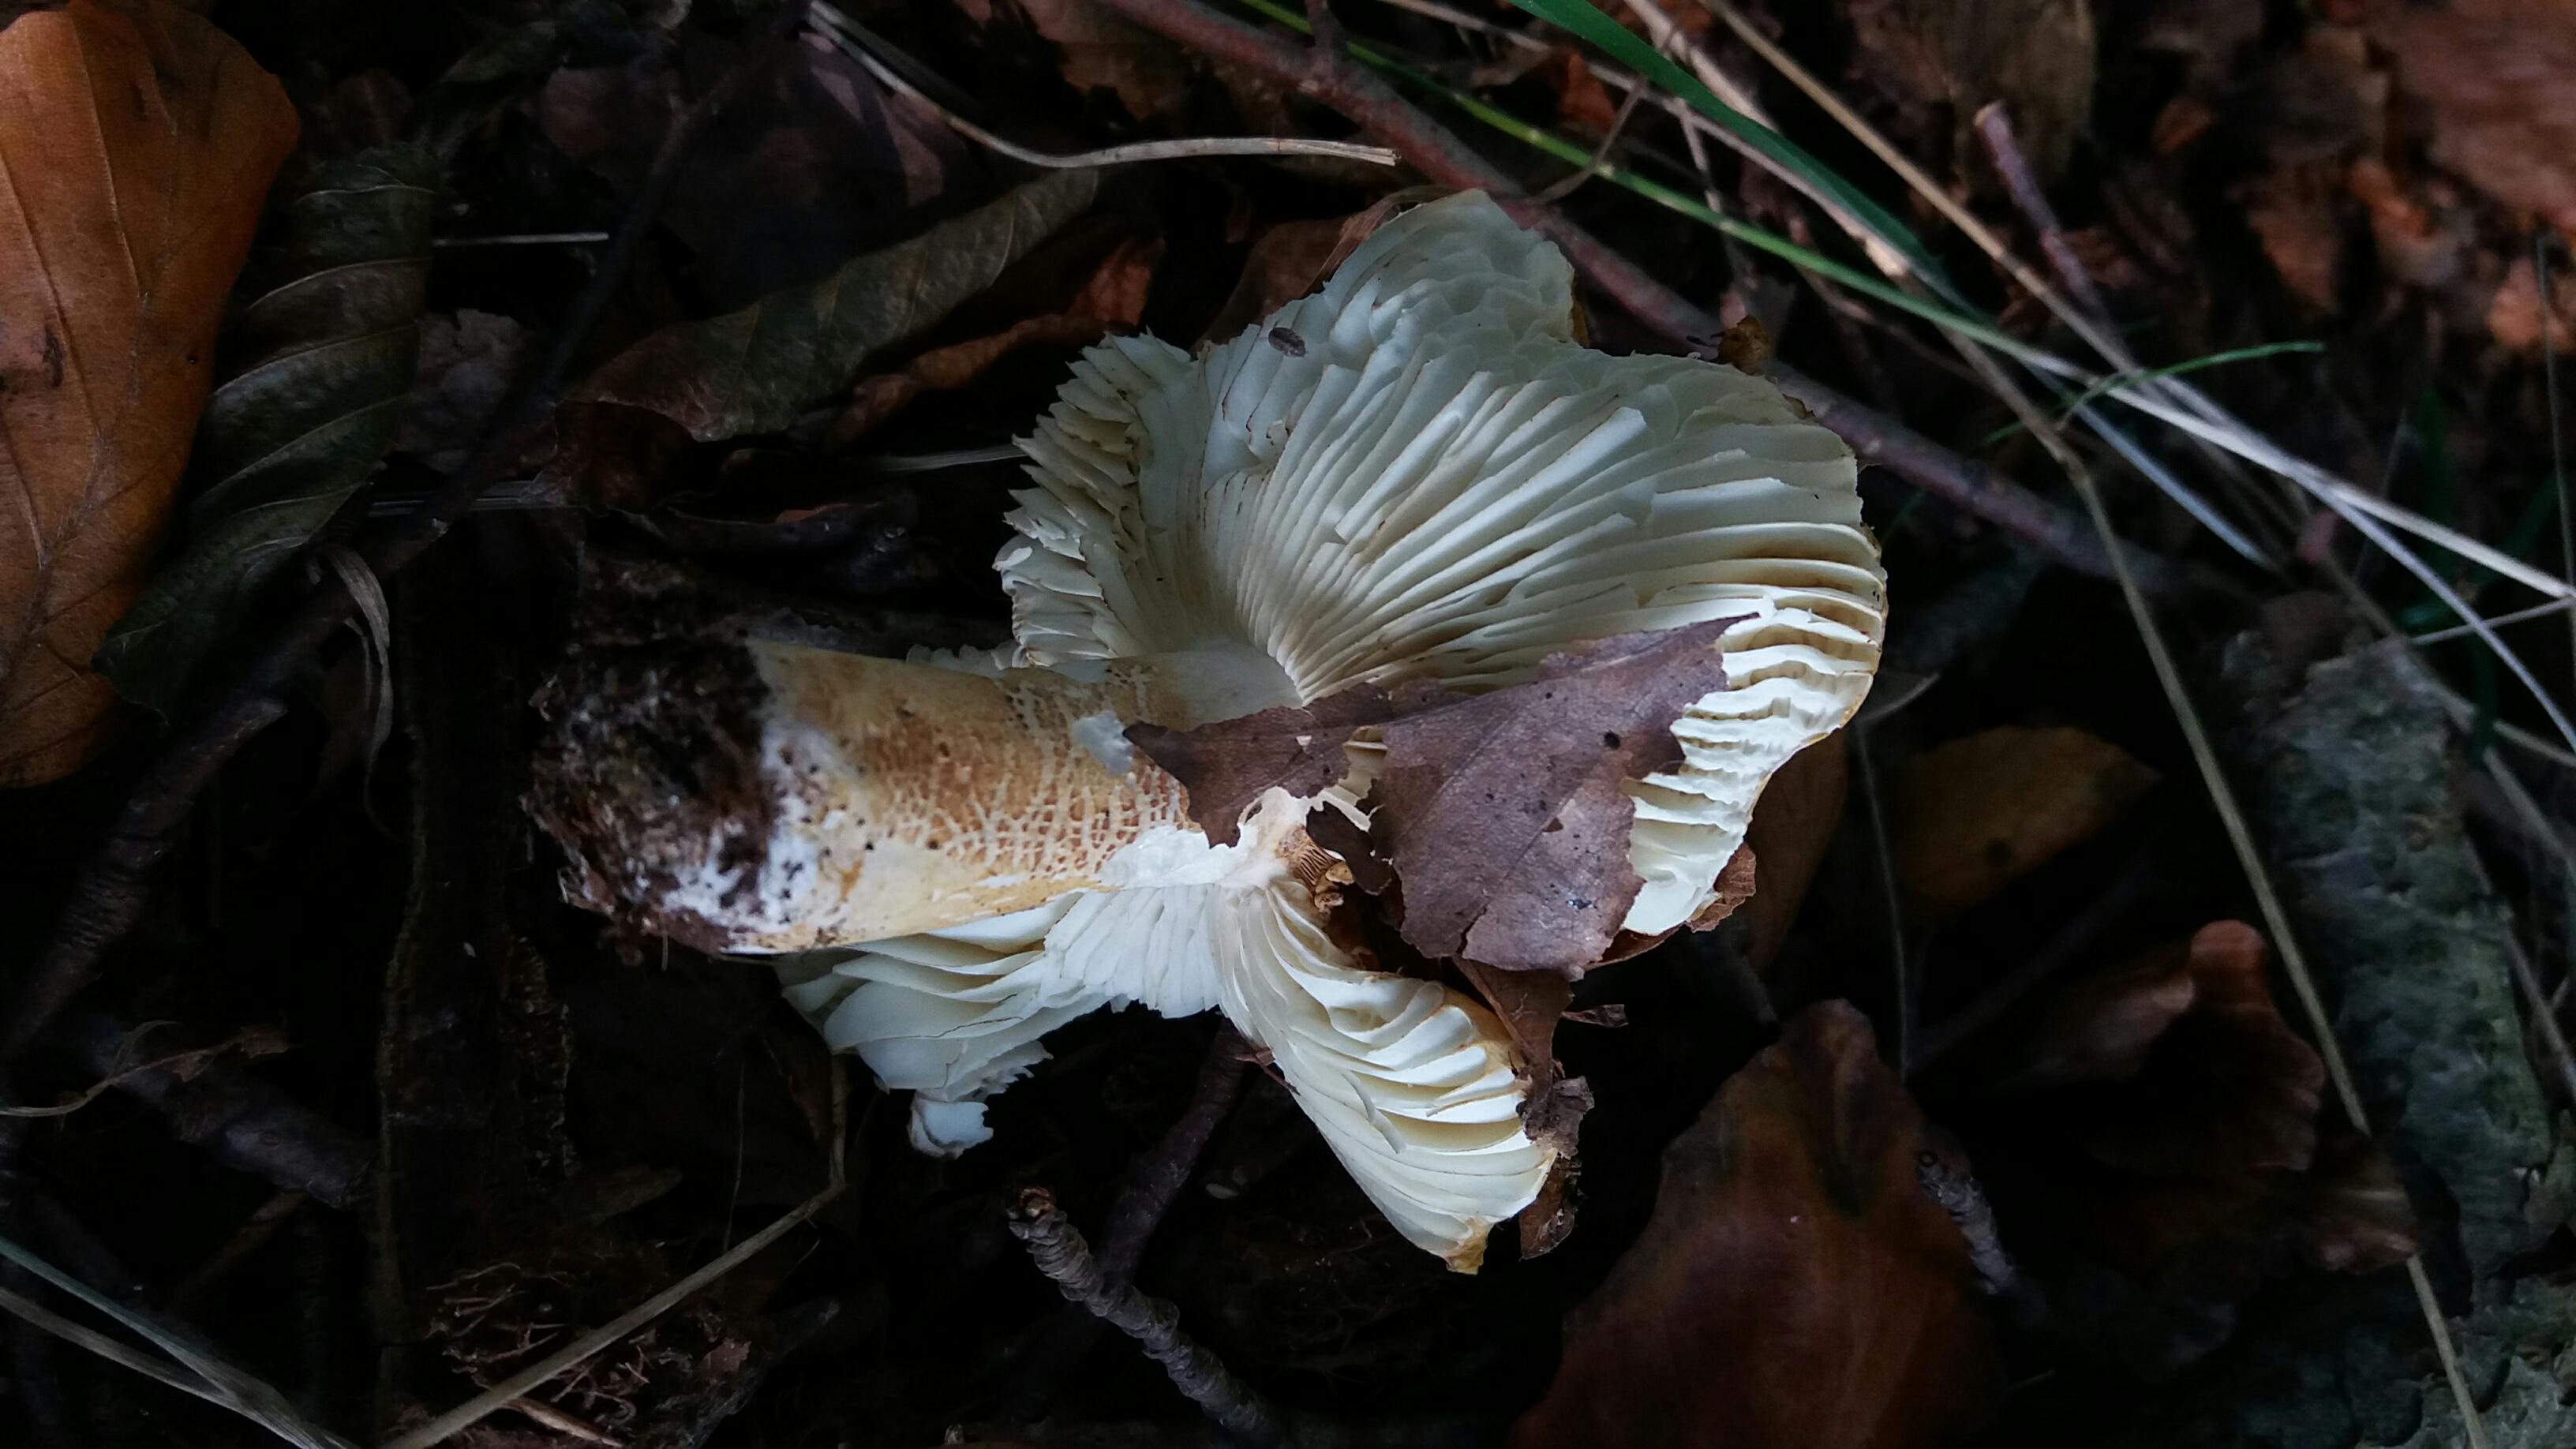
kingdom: Fungi
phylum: Basidiomycota
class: Agaricomycetes
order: Russulales
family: Russulaceae
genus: Russula
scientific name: Russula ochroleuca
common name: okkergul skørhat
